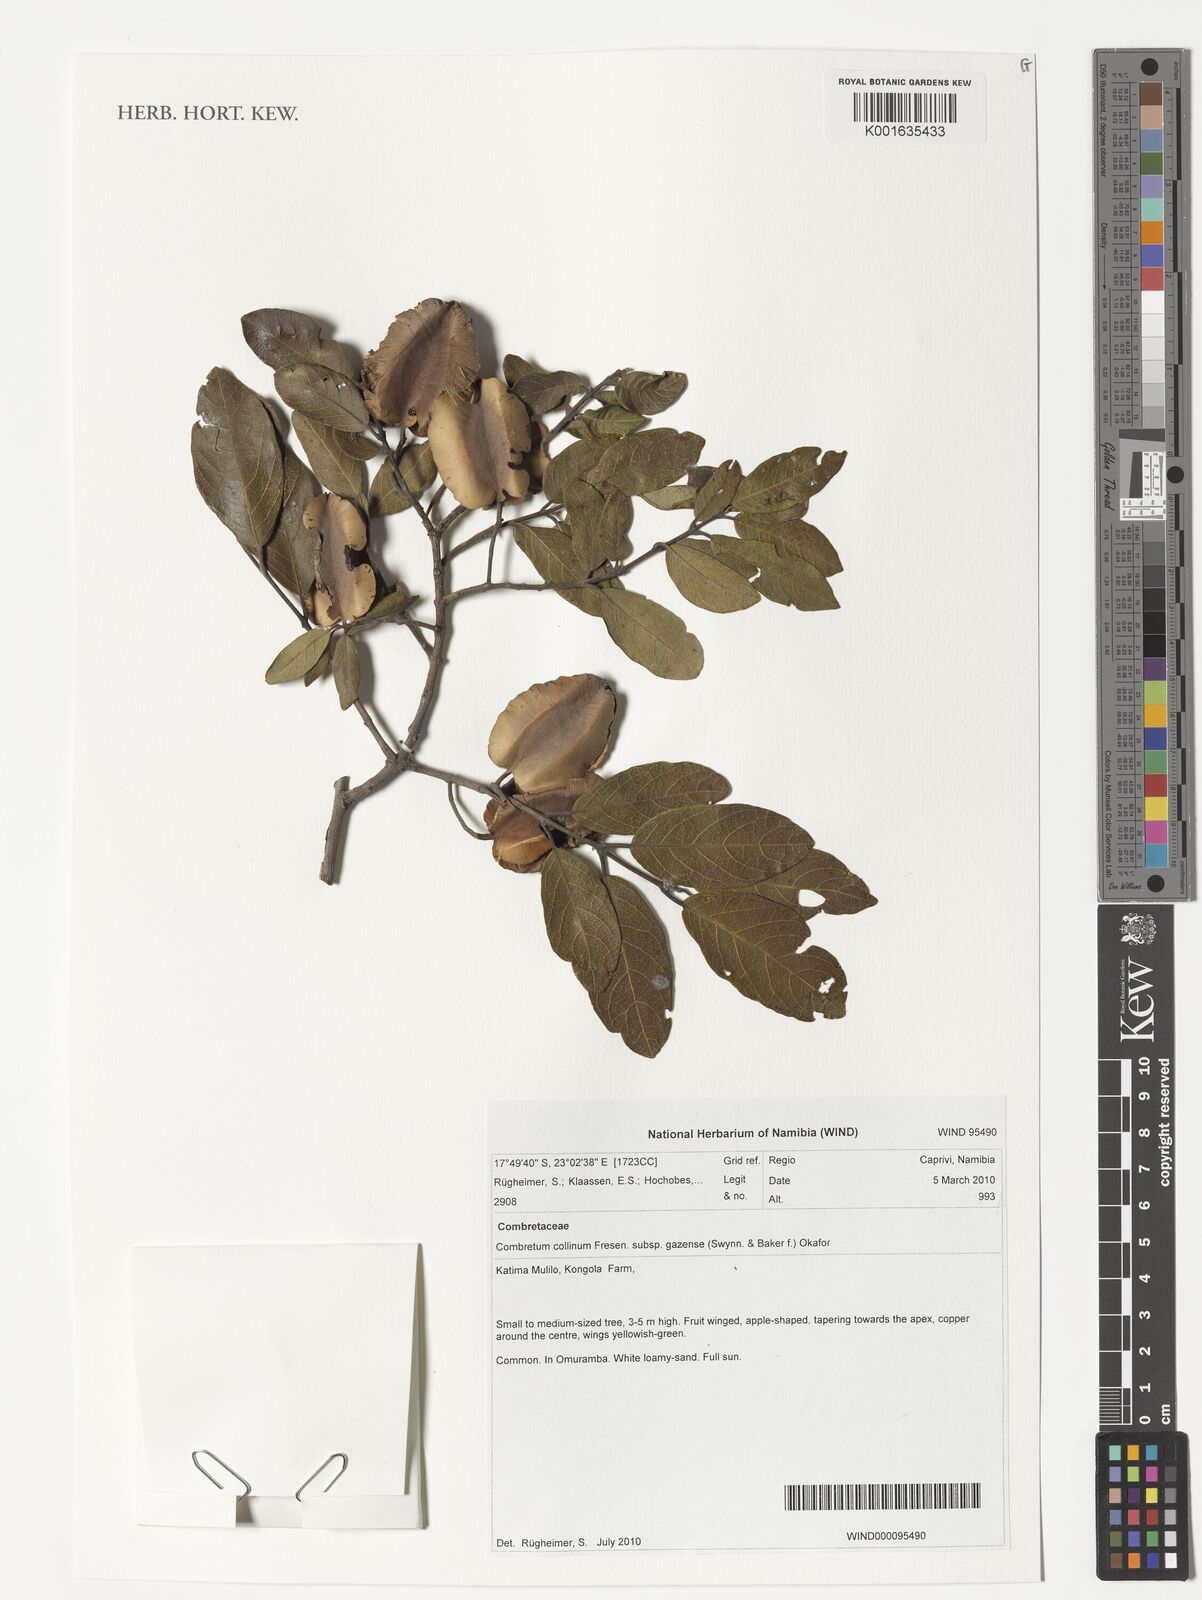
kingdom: Plantae
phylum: Tracheophyta
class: Magnoliopsida
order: Myrtales
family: Combretaceae
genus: Combretum
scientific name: Combretum collinum
